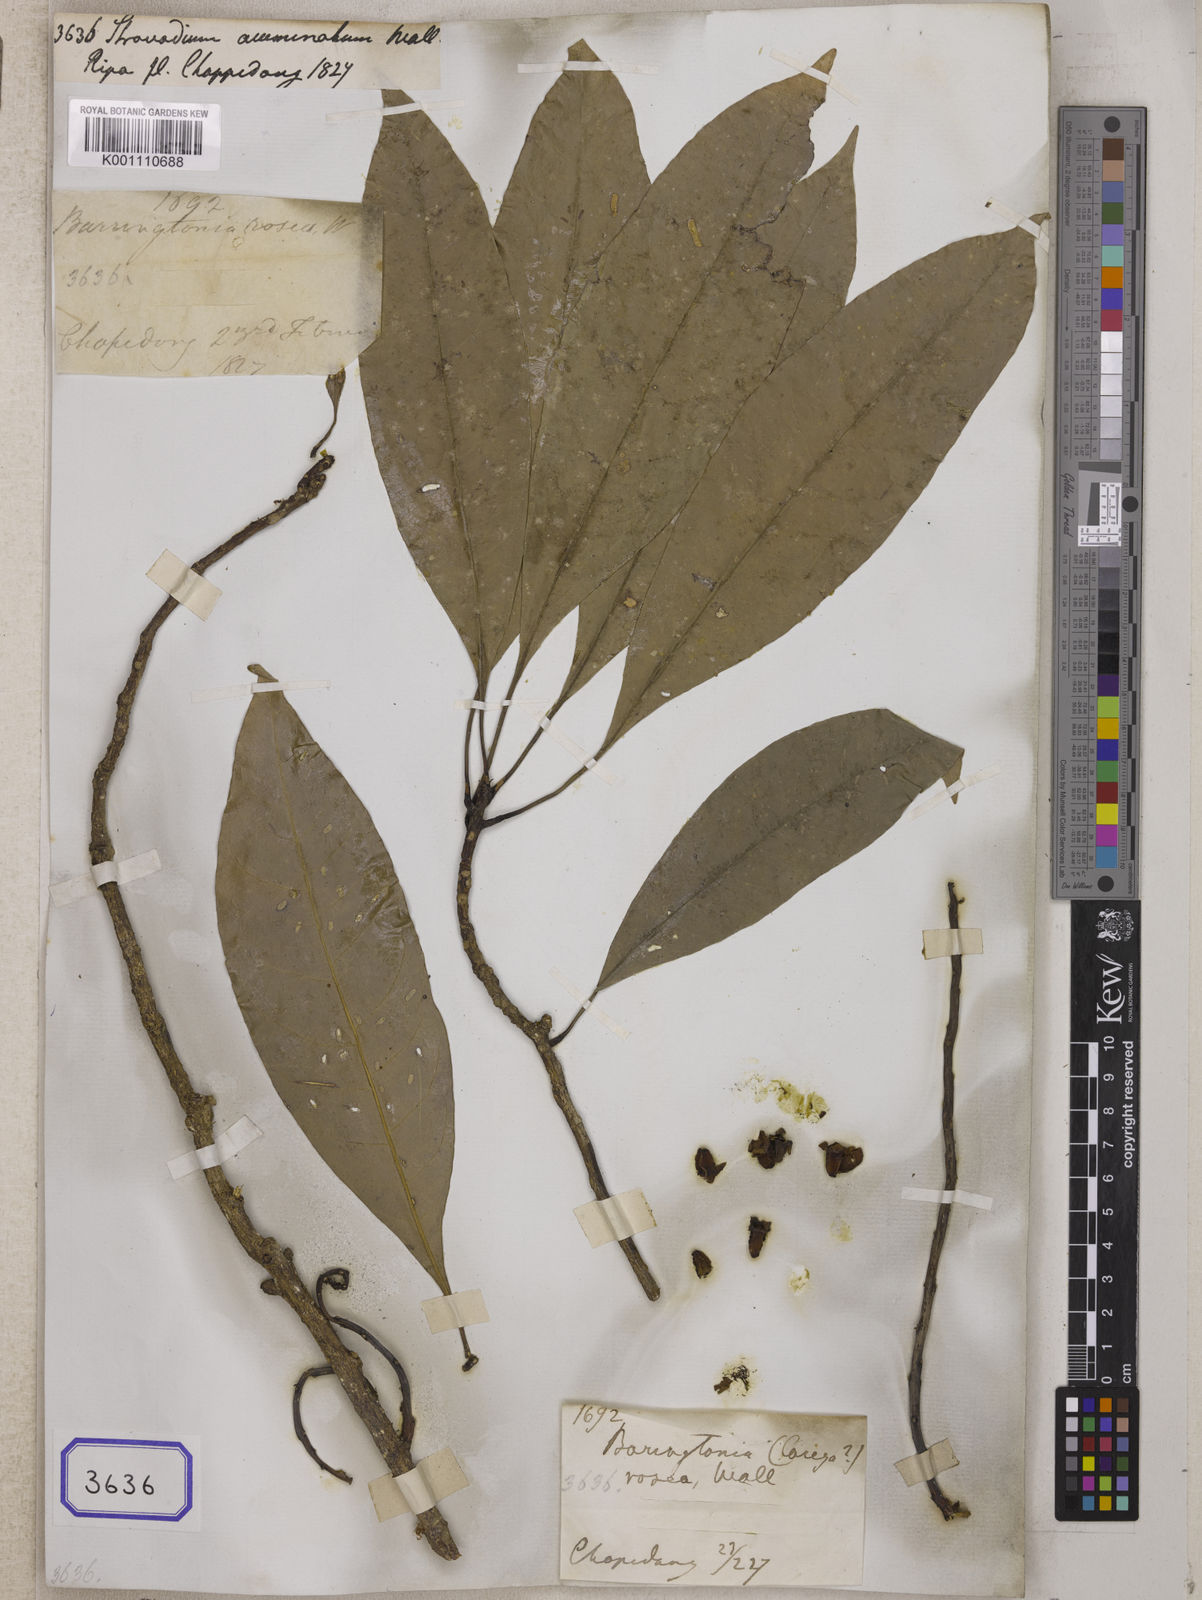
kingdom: Plantae
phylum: Tracheophyta
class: Magnoliopsida
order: Ericales
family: Lecythidaceae
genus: Barringtonia
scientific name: Barringtonia
